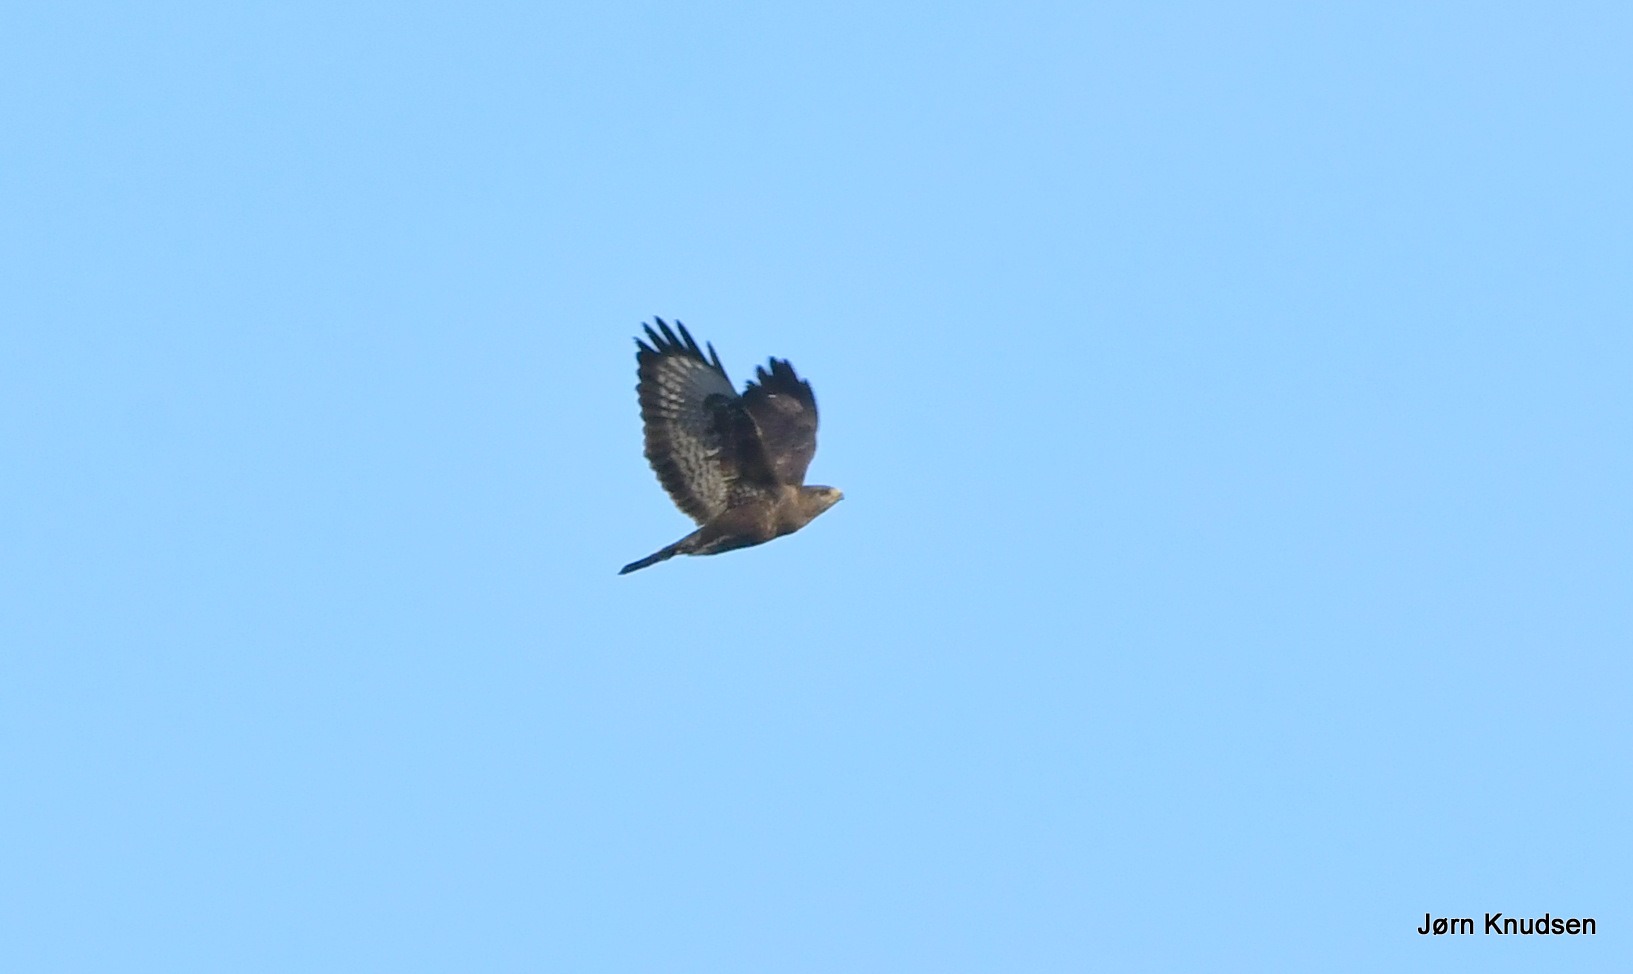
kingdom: Animalia
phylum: Chordata
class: Aves
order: Accipitriformes
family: Accipitridae
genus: Buteo
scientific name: Buteo buteo
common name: Musvåge
